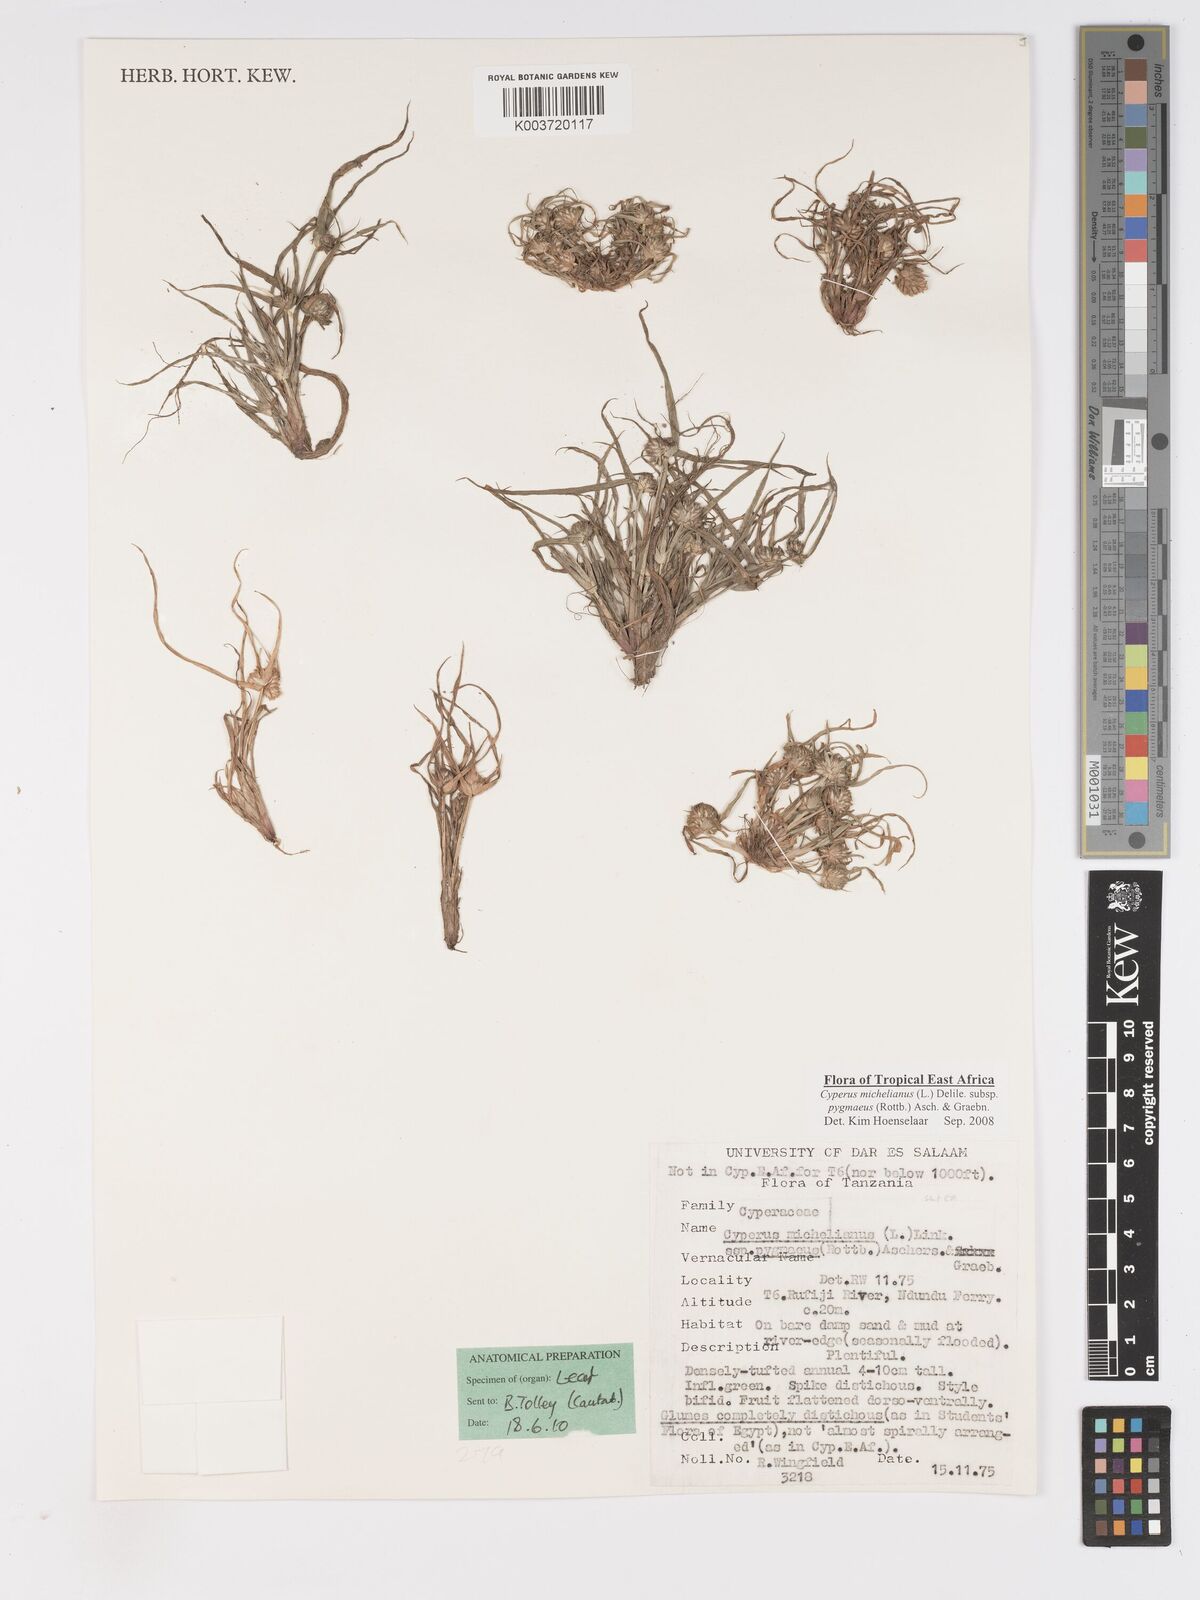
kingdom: Plantae
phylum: Tracheophyta
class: Liliopsida
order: Poales
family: Cyperaceae
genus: Cyperus
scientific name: Cyperus michelianus
